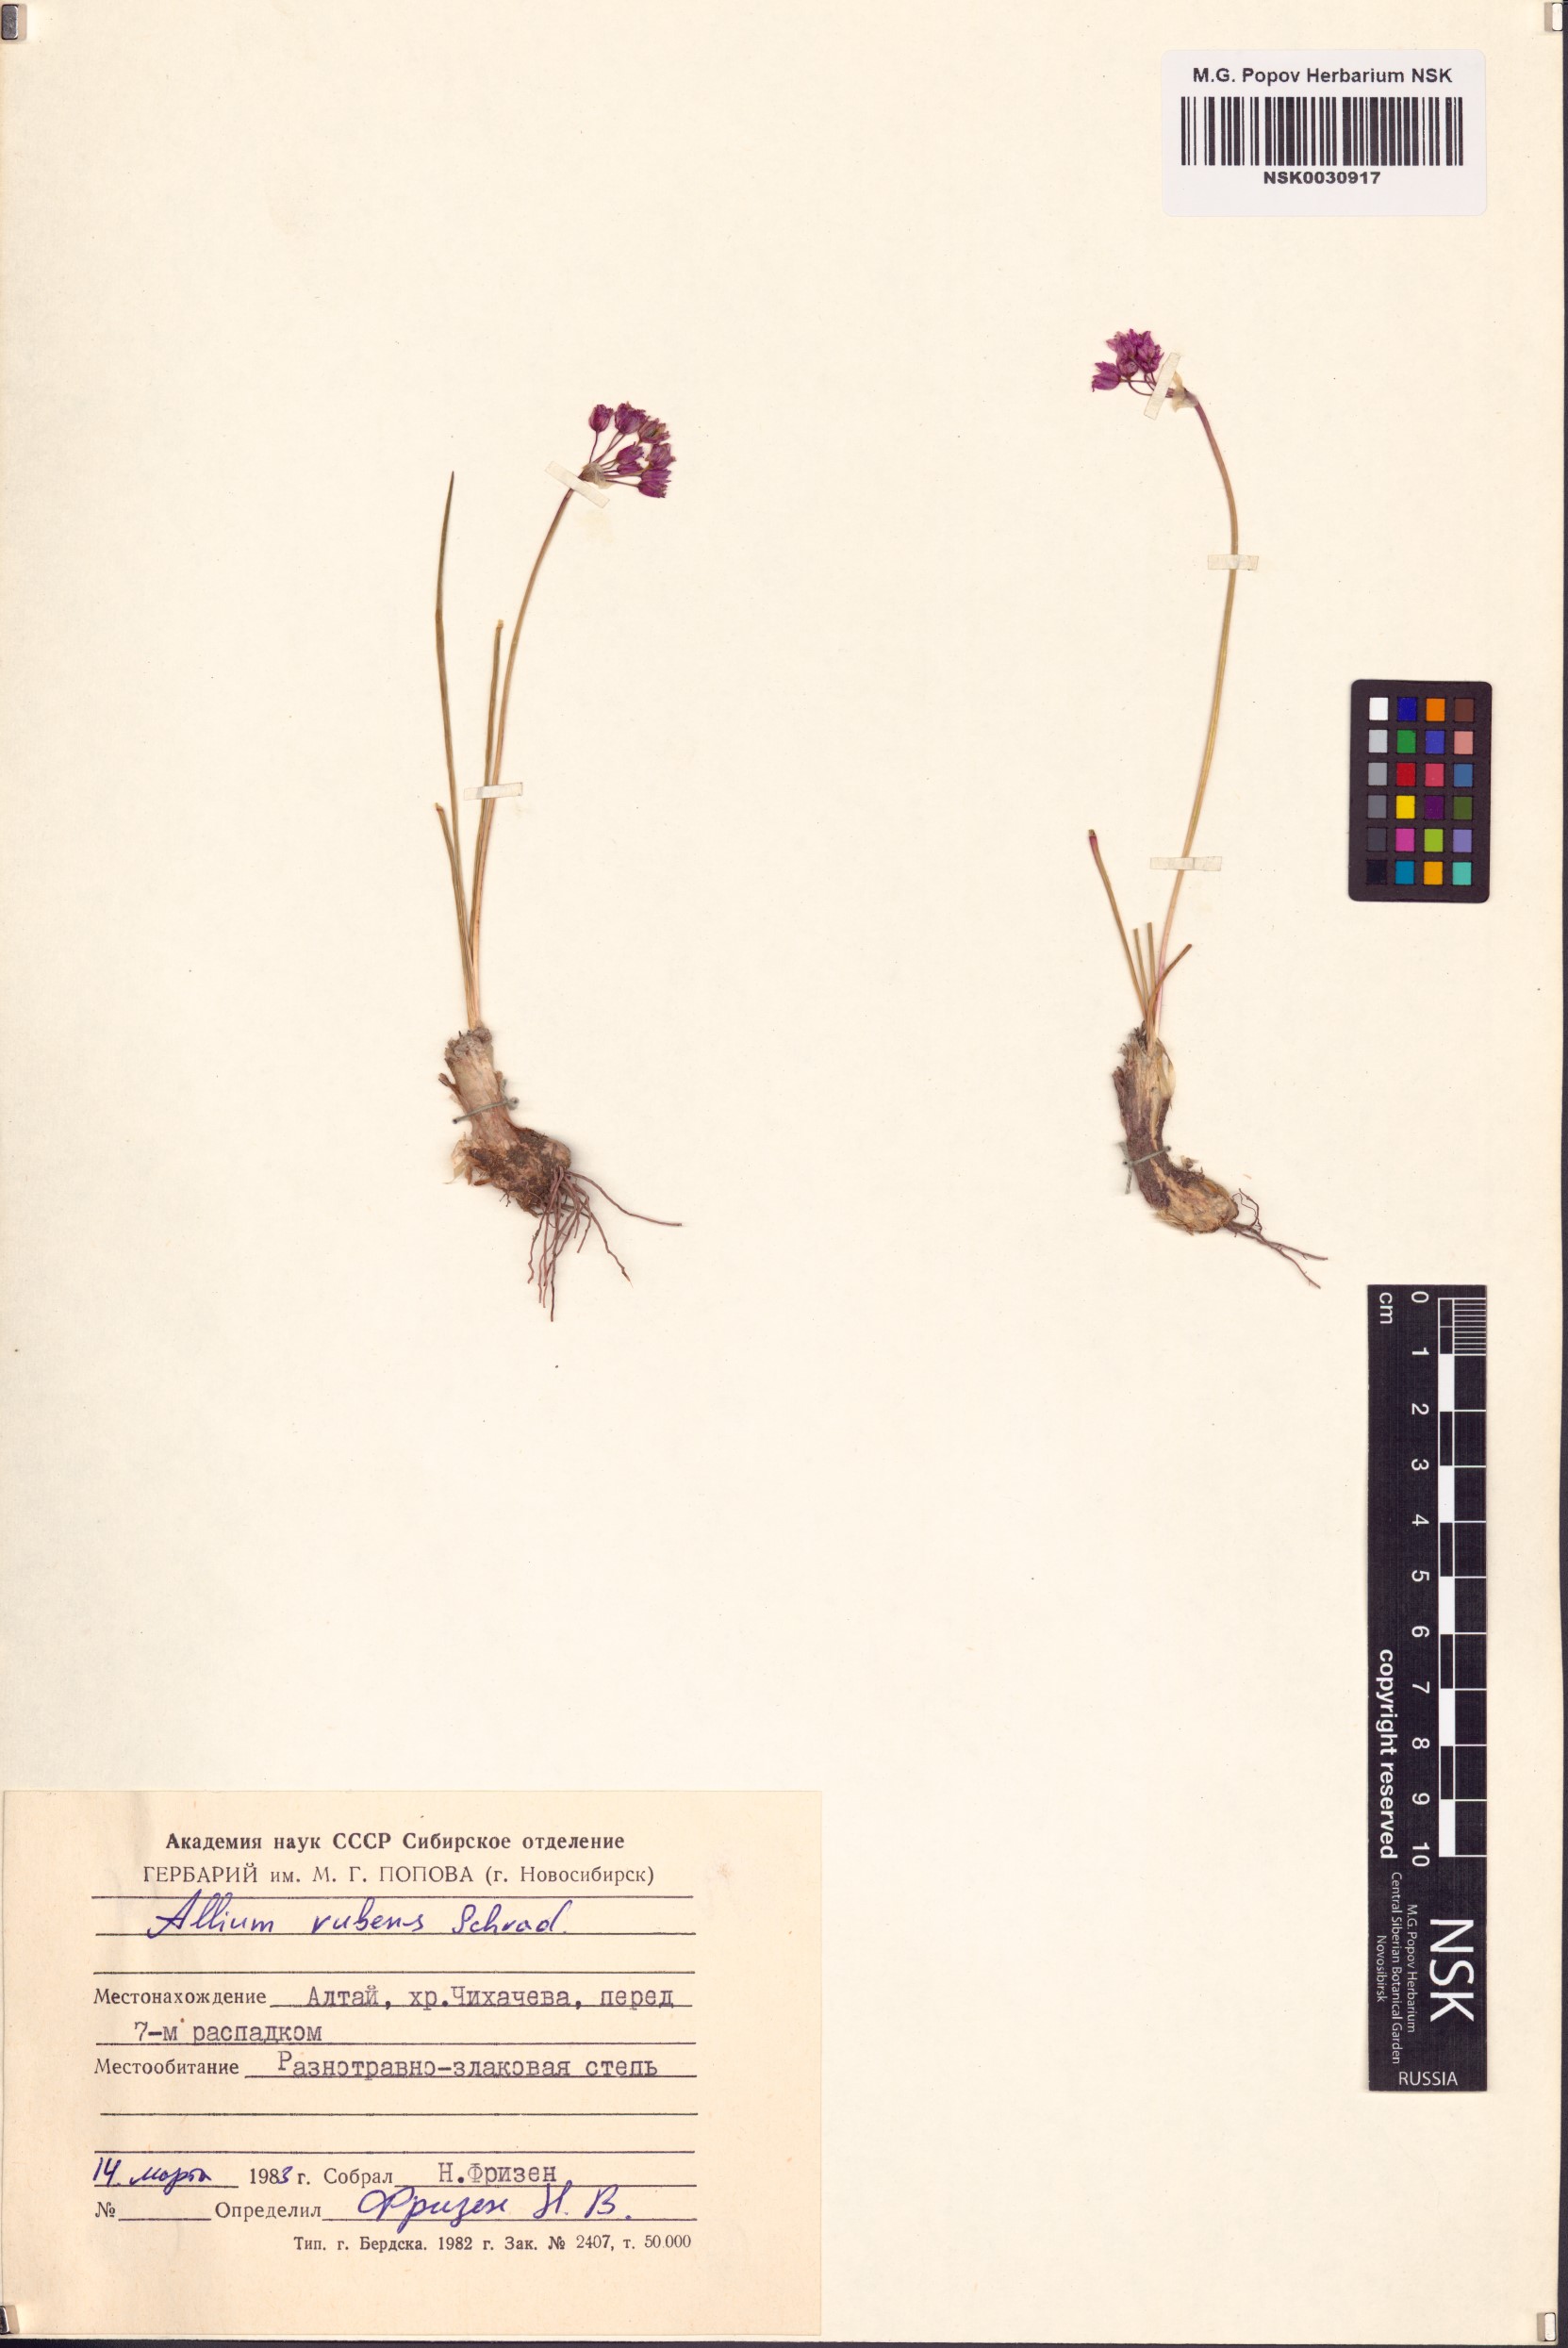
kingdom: Plantae
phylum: Tracheophyta
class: Liliopsida
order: Asparagales
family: Amaryllidaceae
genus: Allium
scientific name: Allium rubens
